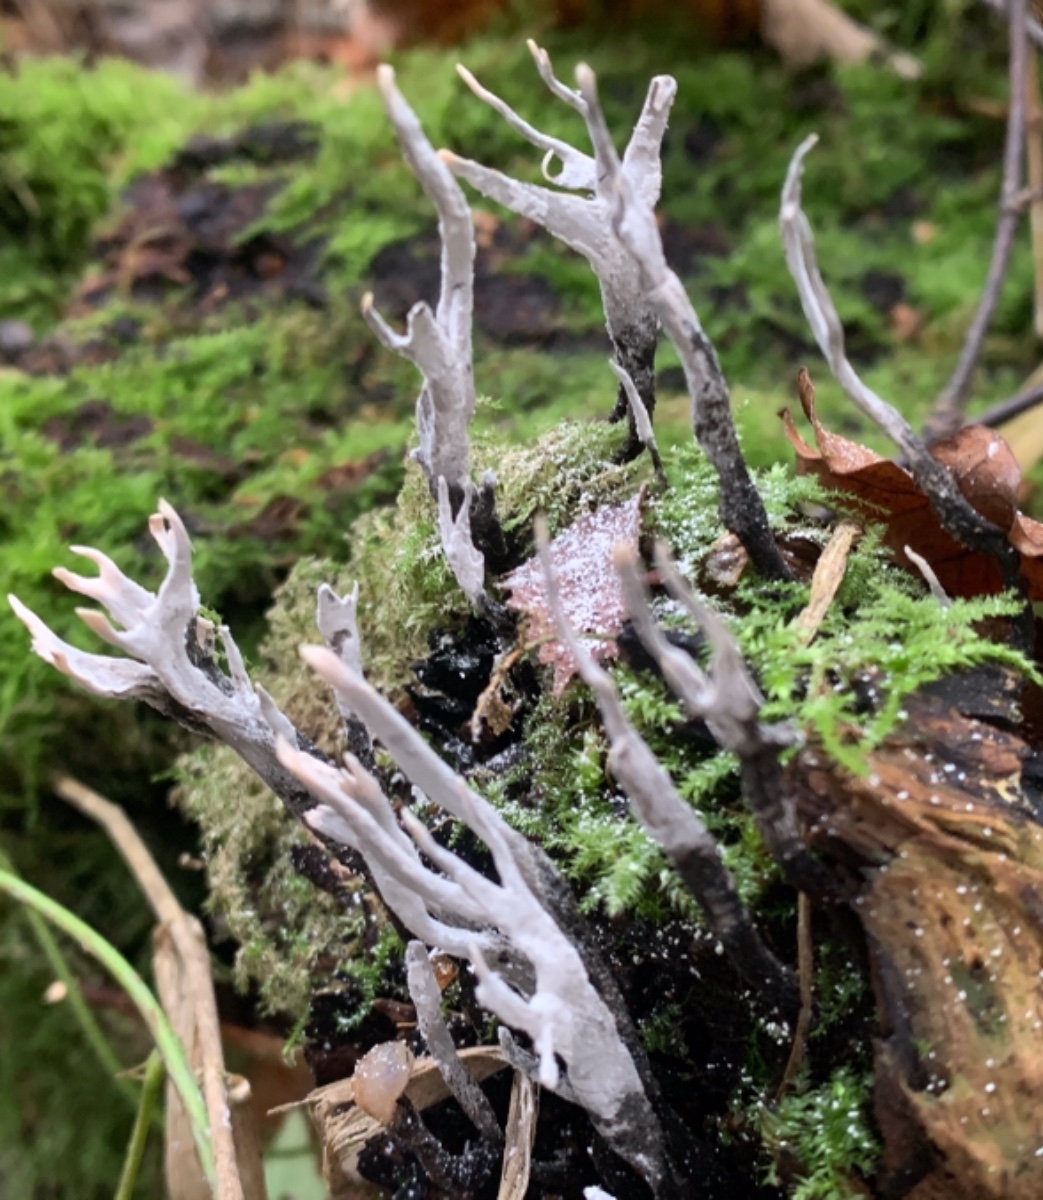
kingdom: Fungi
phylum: Ascomycota
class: Sordariomycetes
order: Xylariales
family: Xylariaceae
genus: Xylaria
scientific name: Xylaria hypoxylon
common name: grenet stødsvamp
